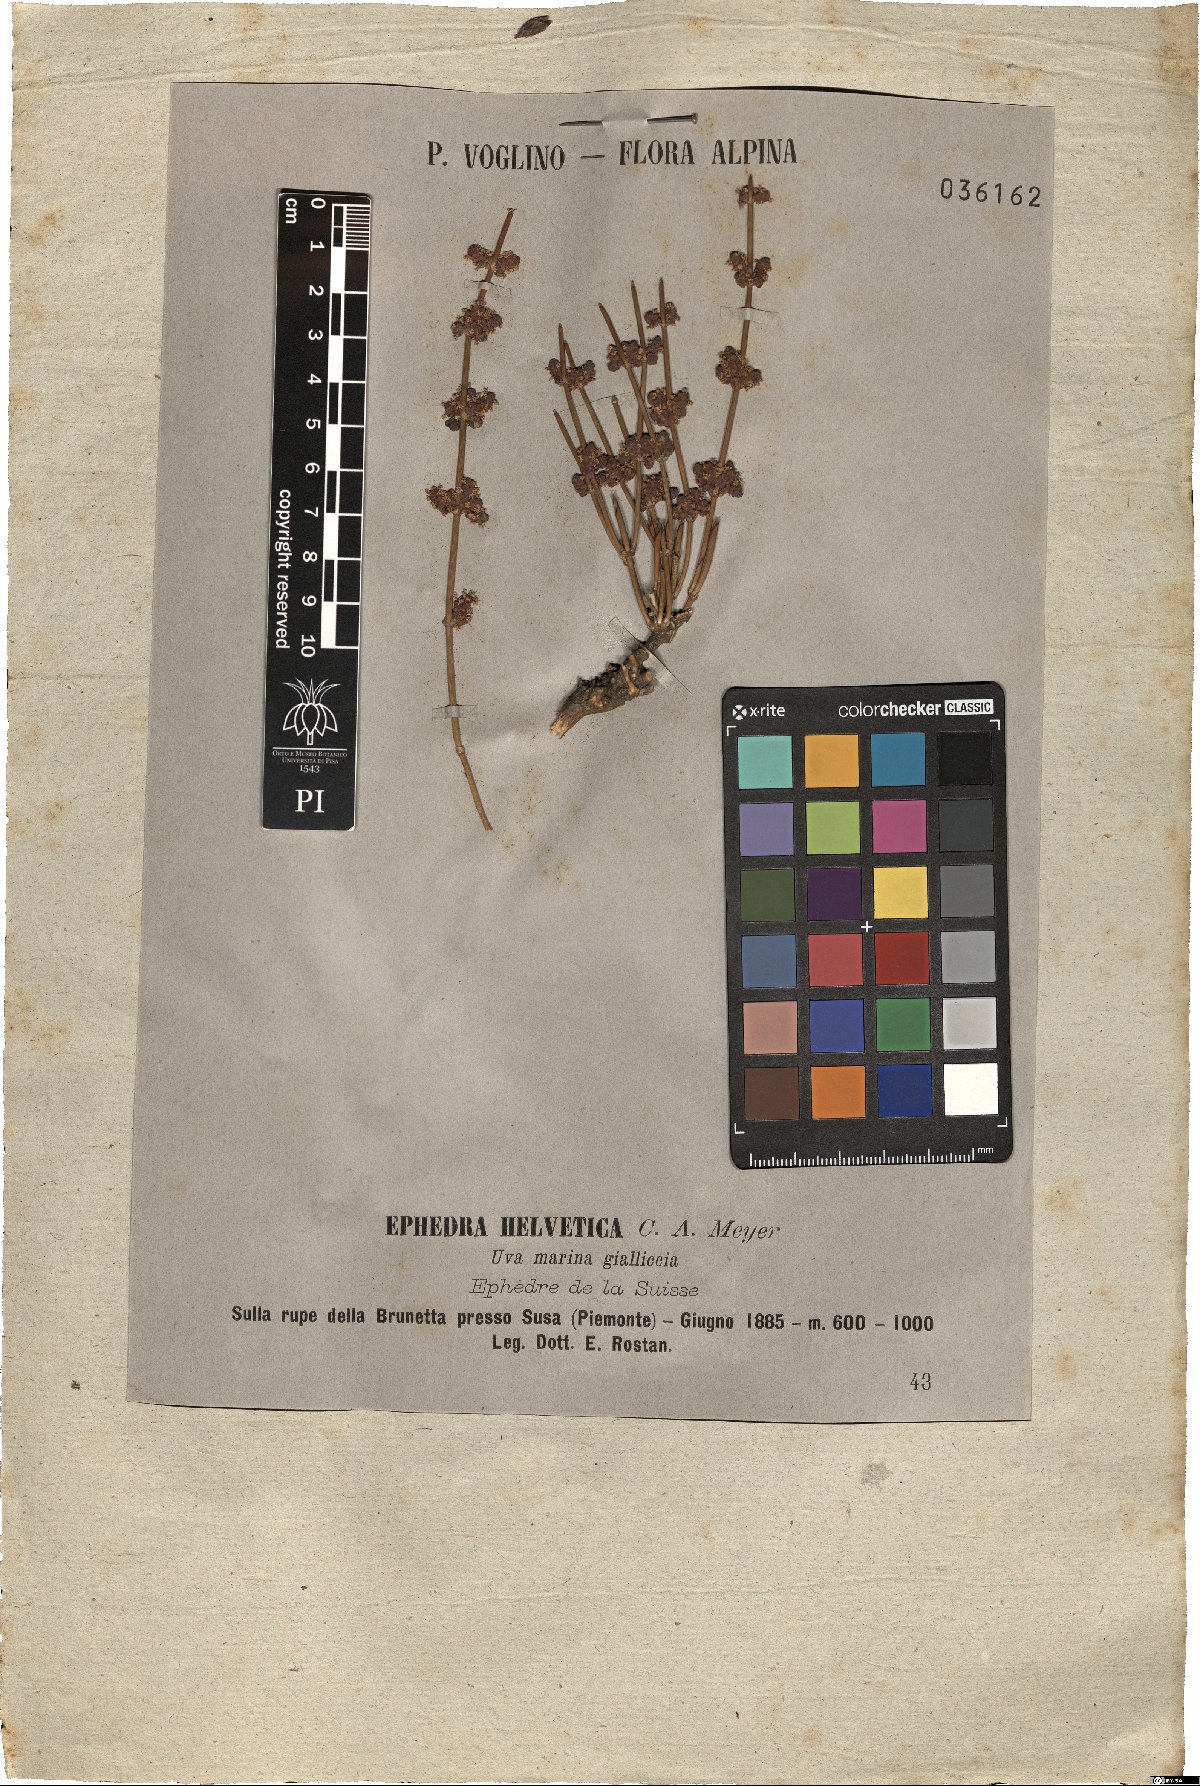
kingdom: Plantae
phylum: Tracheophyta
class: Gnetopsida
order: Ephedrales
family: Ephedraceae
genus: Ephedra
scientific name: Ephedra distachya
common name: Sea grape
